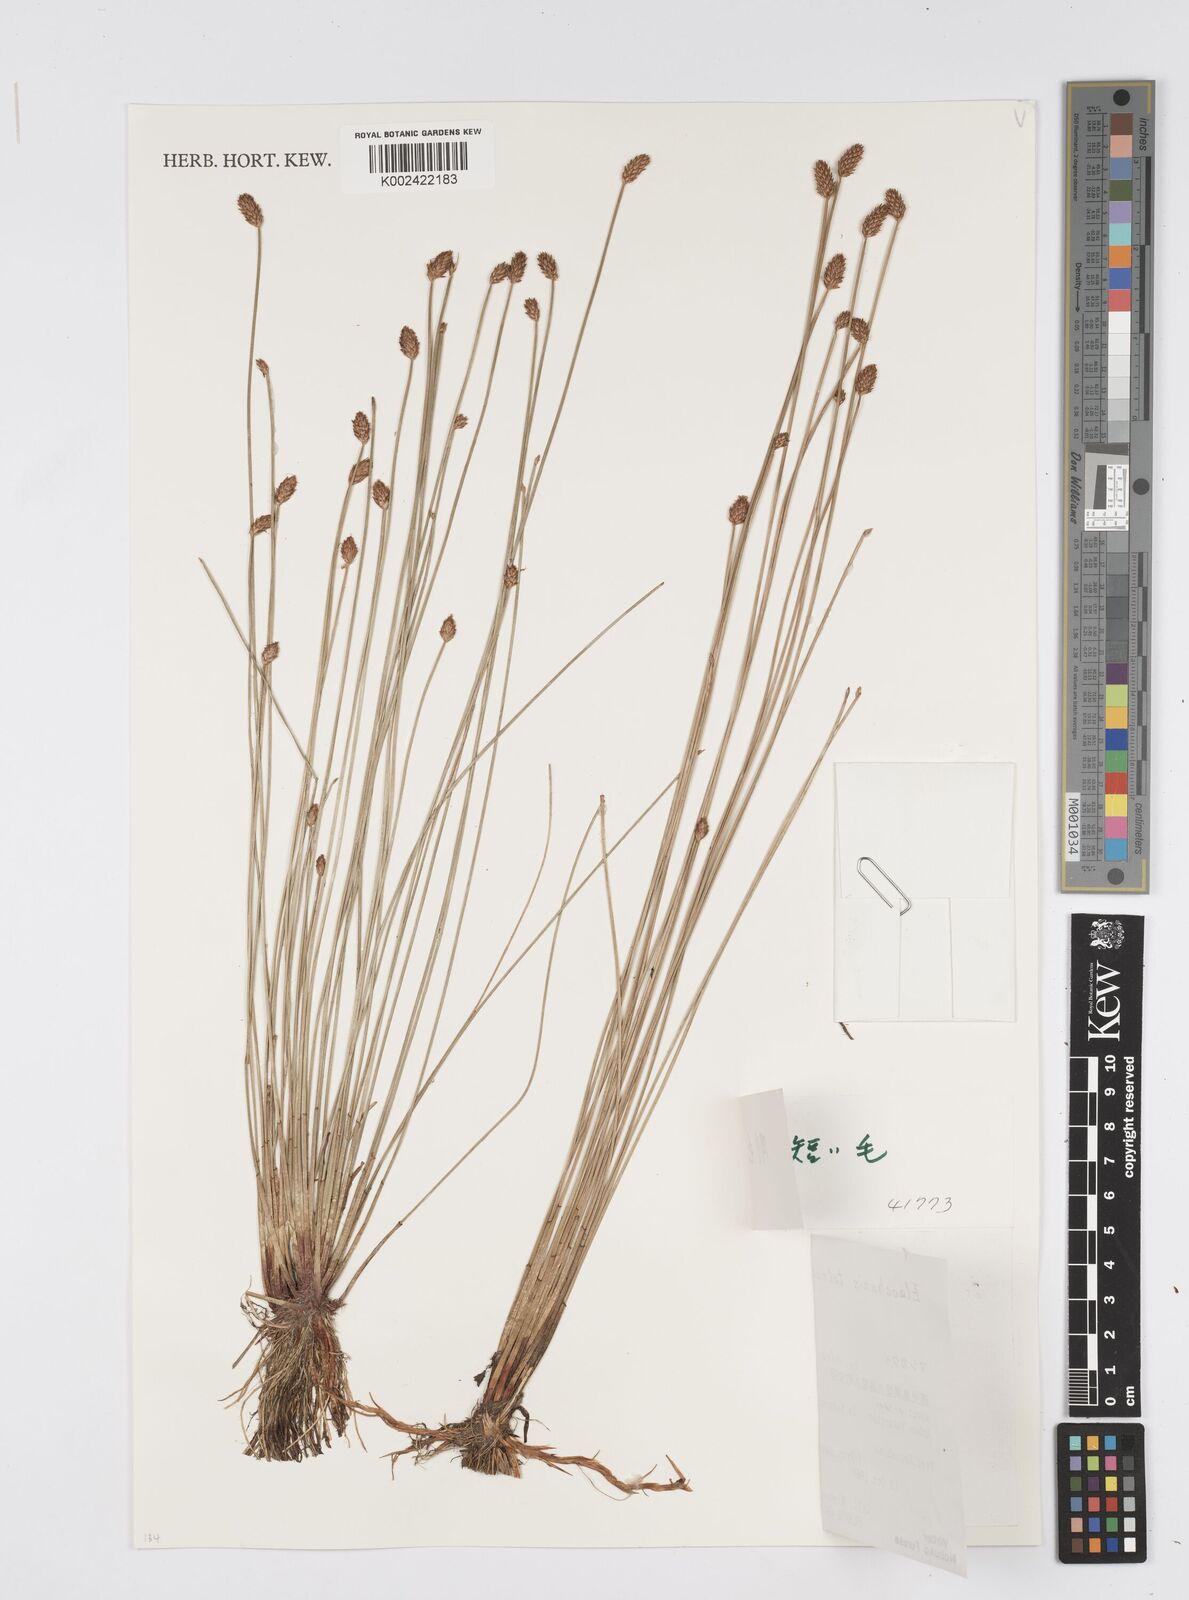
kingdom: Plantae
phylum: Tracheophyta
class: Liliopsida
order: Poales
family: Cyperaceae
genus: Eleocharis
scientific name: Eleocharis tetraquetra
